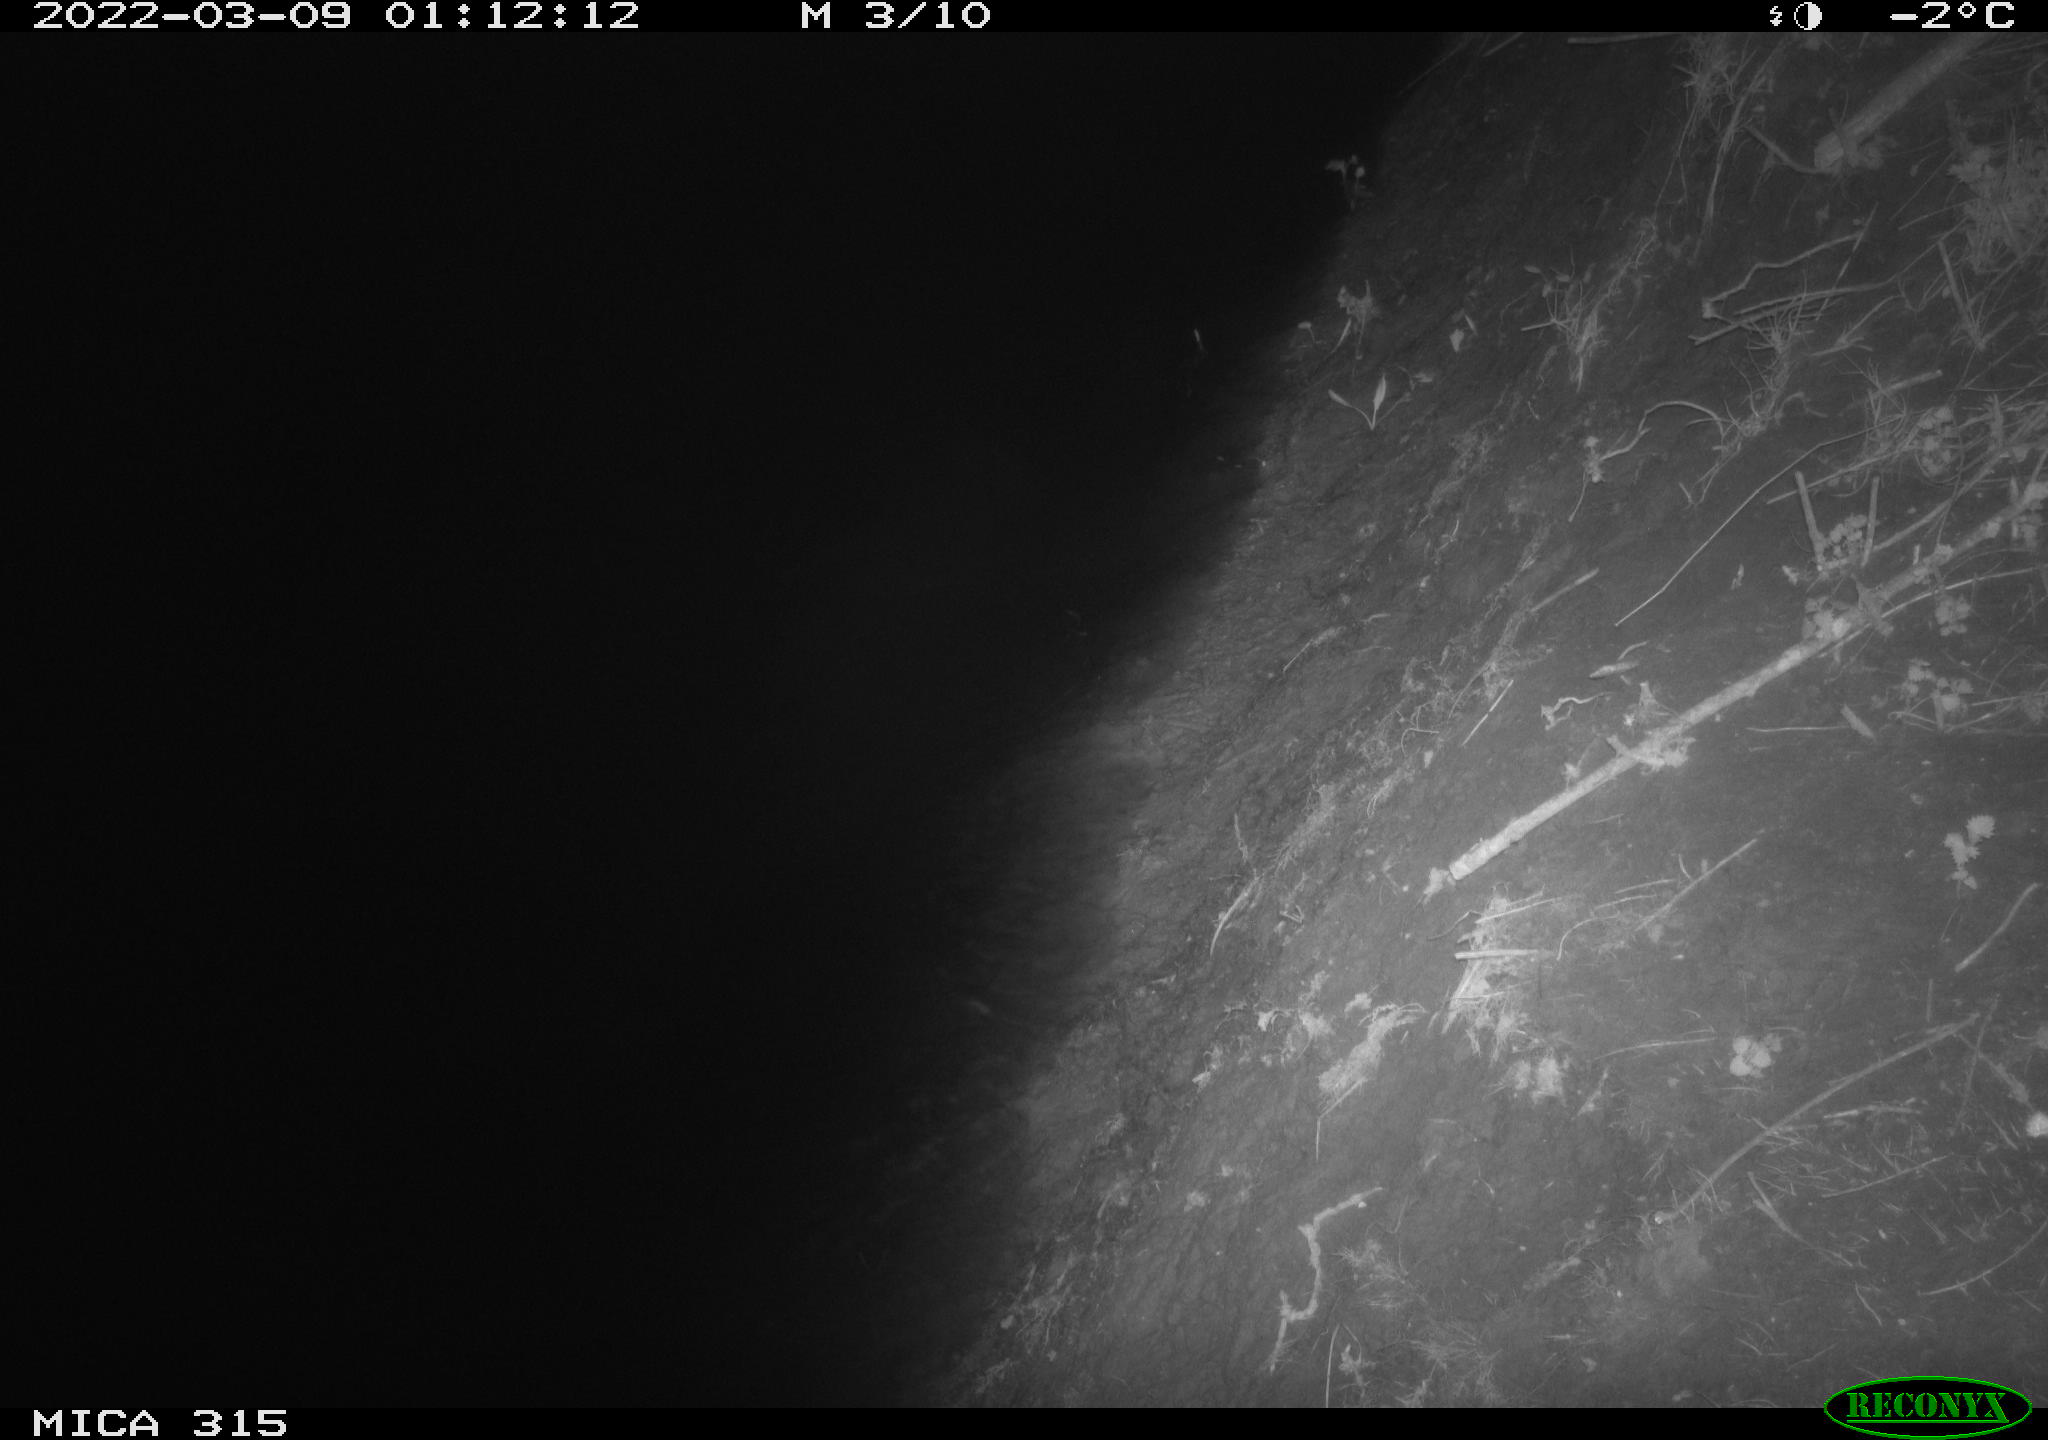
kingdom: Animalia
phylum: Chordata
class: Aves
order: Anseriformes
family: Anatidae
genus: Anas
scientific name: Anas platyrhynchos
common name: Mallard
